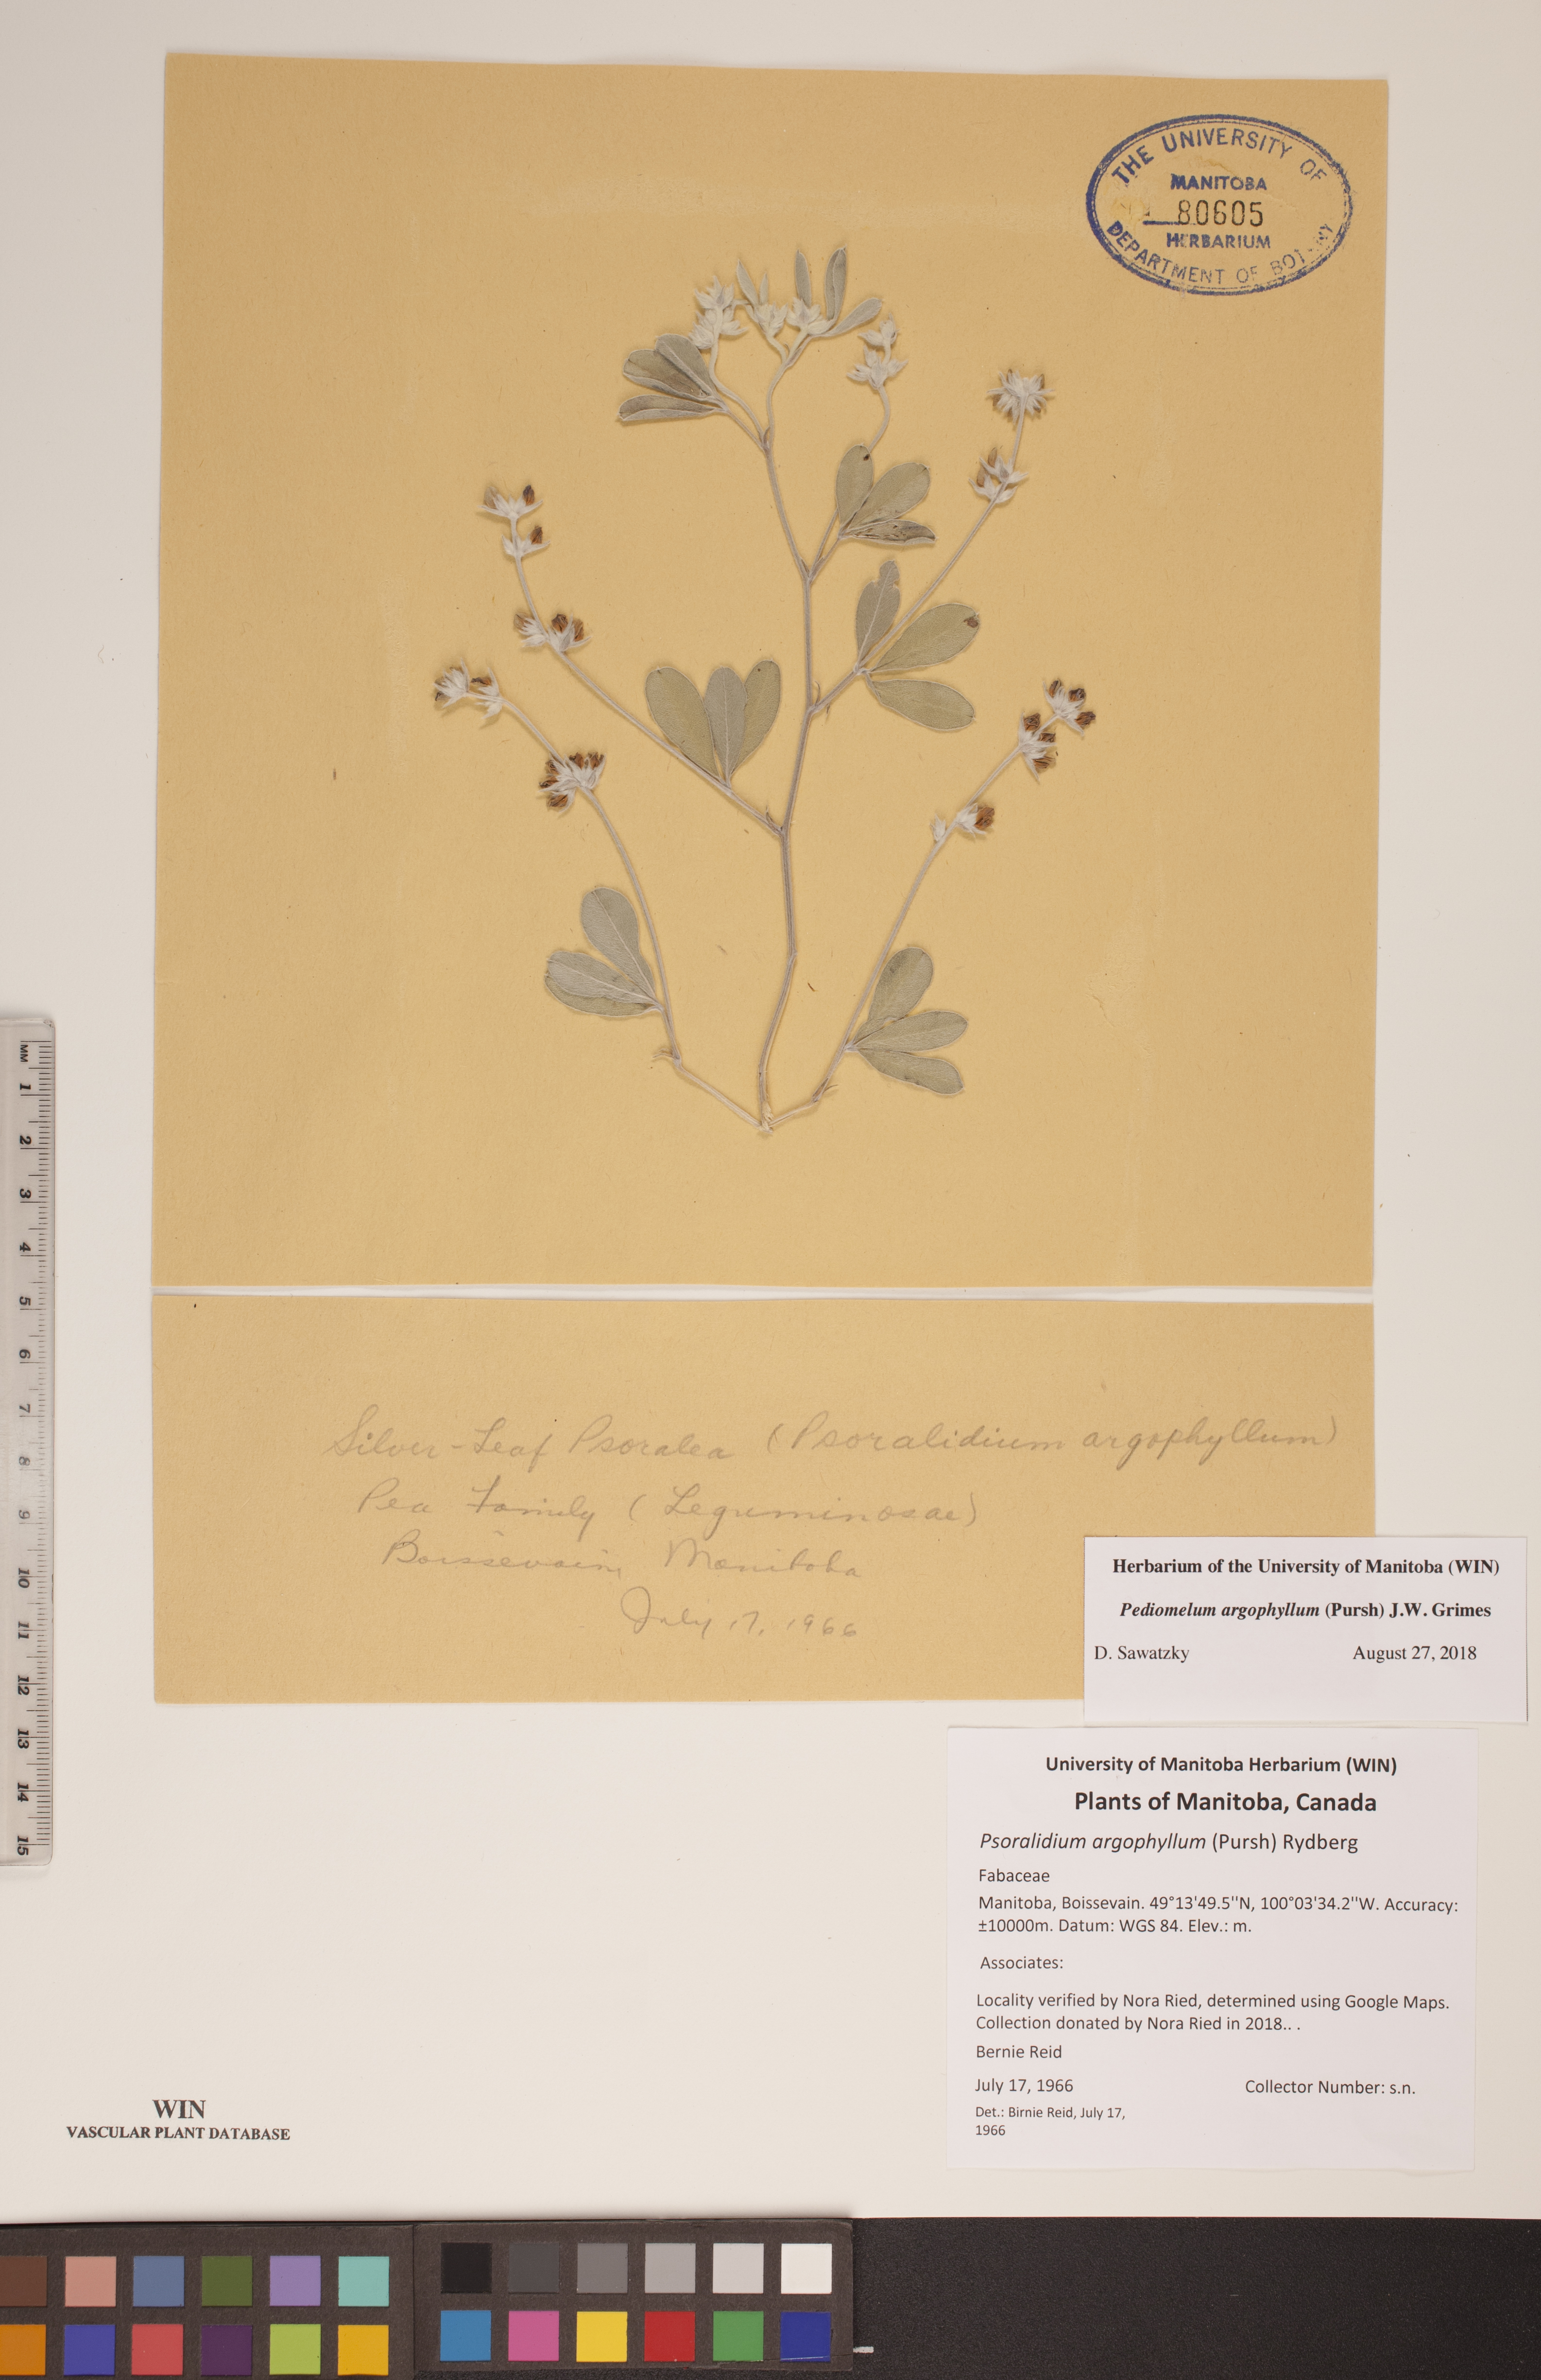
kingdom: Plantae
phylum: Tracheophyta
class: Magnoliopsida
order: Fabales
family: Fabaceae
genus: Pediomelum
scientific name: Pediomelum argophyllum
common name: Silver-leaved indian breadroot
